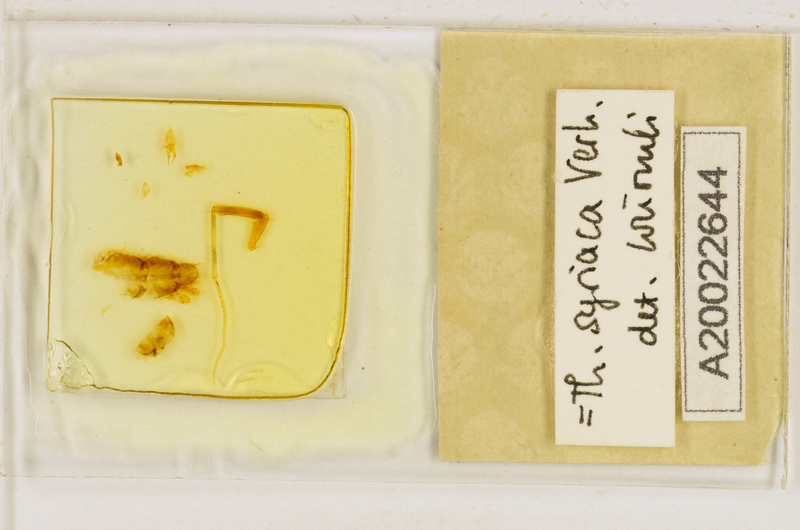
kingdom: Animalia
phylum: Arthropoda
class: Chilopoda
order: Scutigeromorpha
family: Scutigeridae
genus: Thereuonema
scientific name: Thereuonema microstoma
